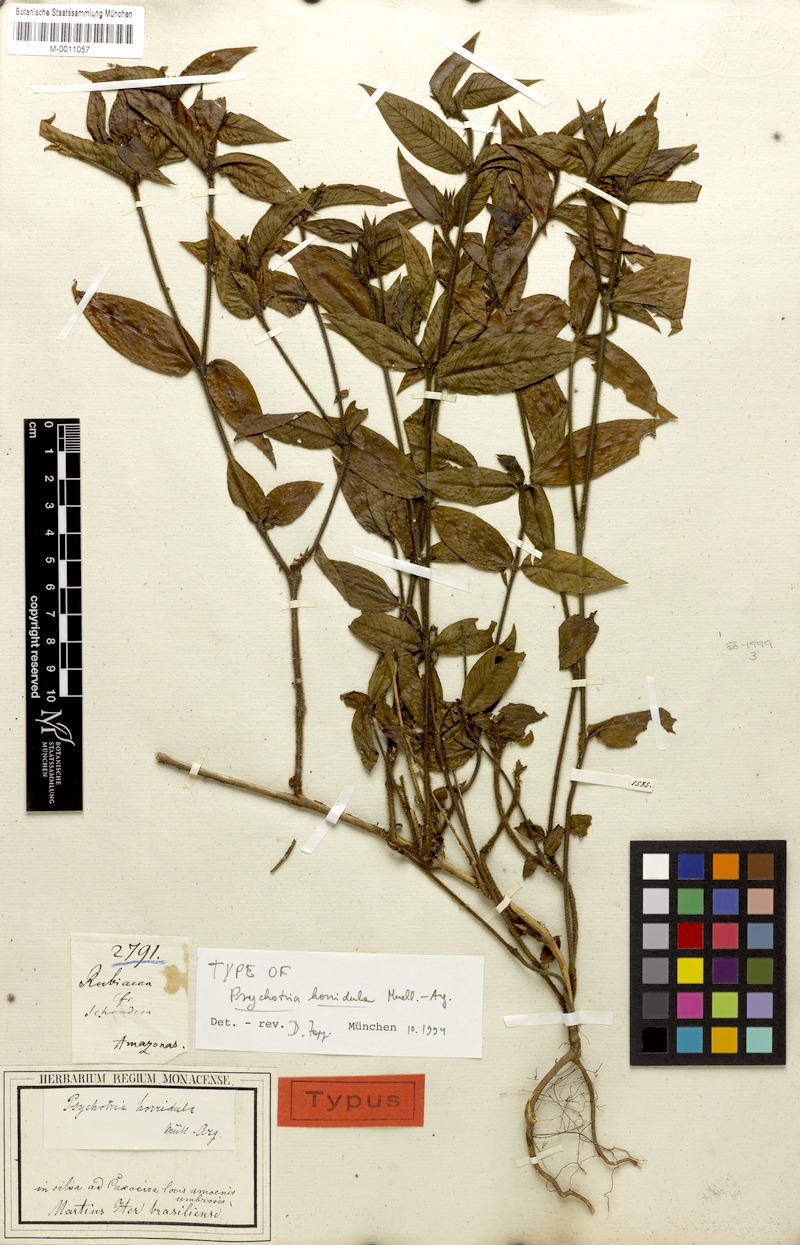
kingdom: Plantae
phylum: Tracheophyta
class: Magnoliopsida
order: Gentianales
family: Rubiaceae
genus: Palicourea
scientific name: Palicourea iodotricha
